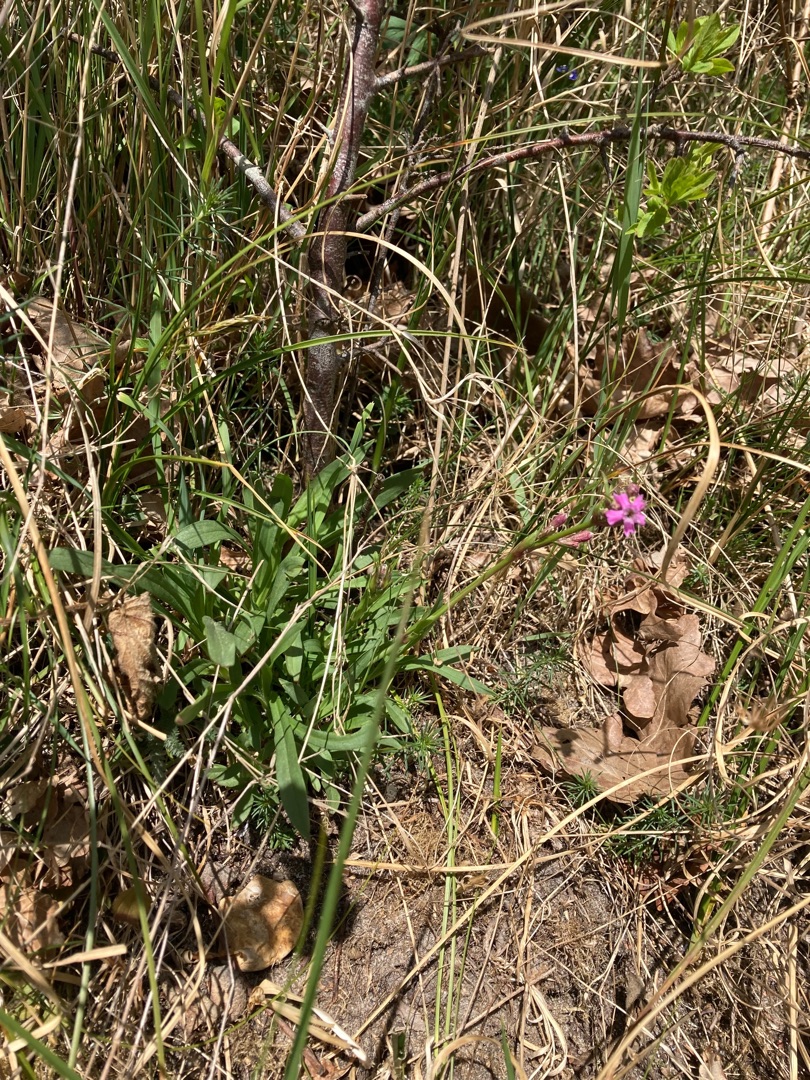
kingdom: Plantae
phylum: Tracheophyta
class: Magnoliopsida
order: Caryophyllales
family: Caryophyllaceae
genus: Viscaria
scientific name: Viscaria vulgaris
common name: Tjærenellike
